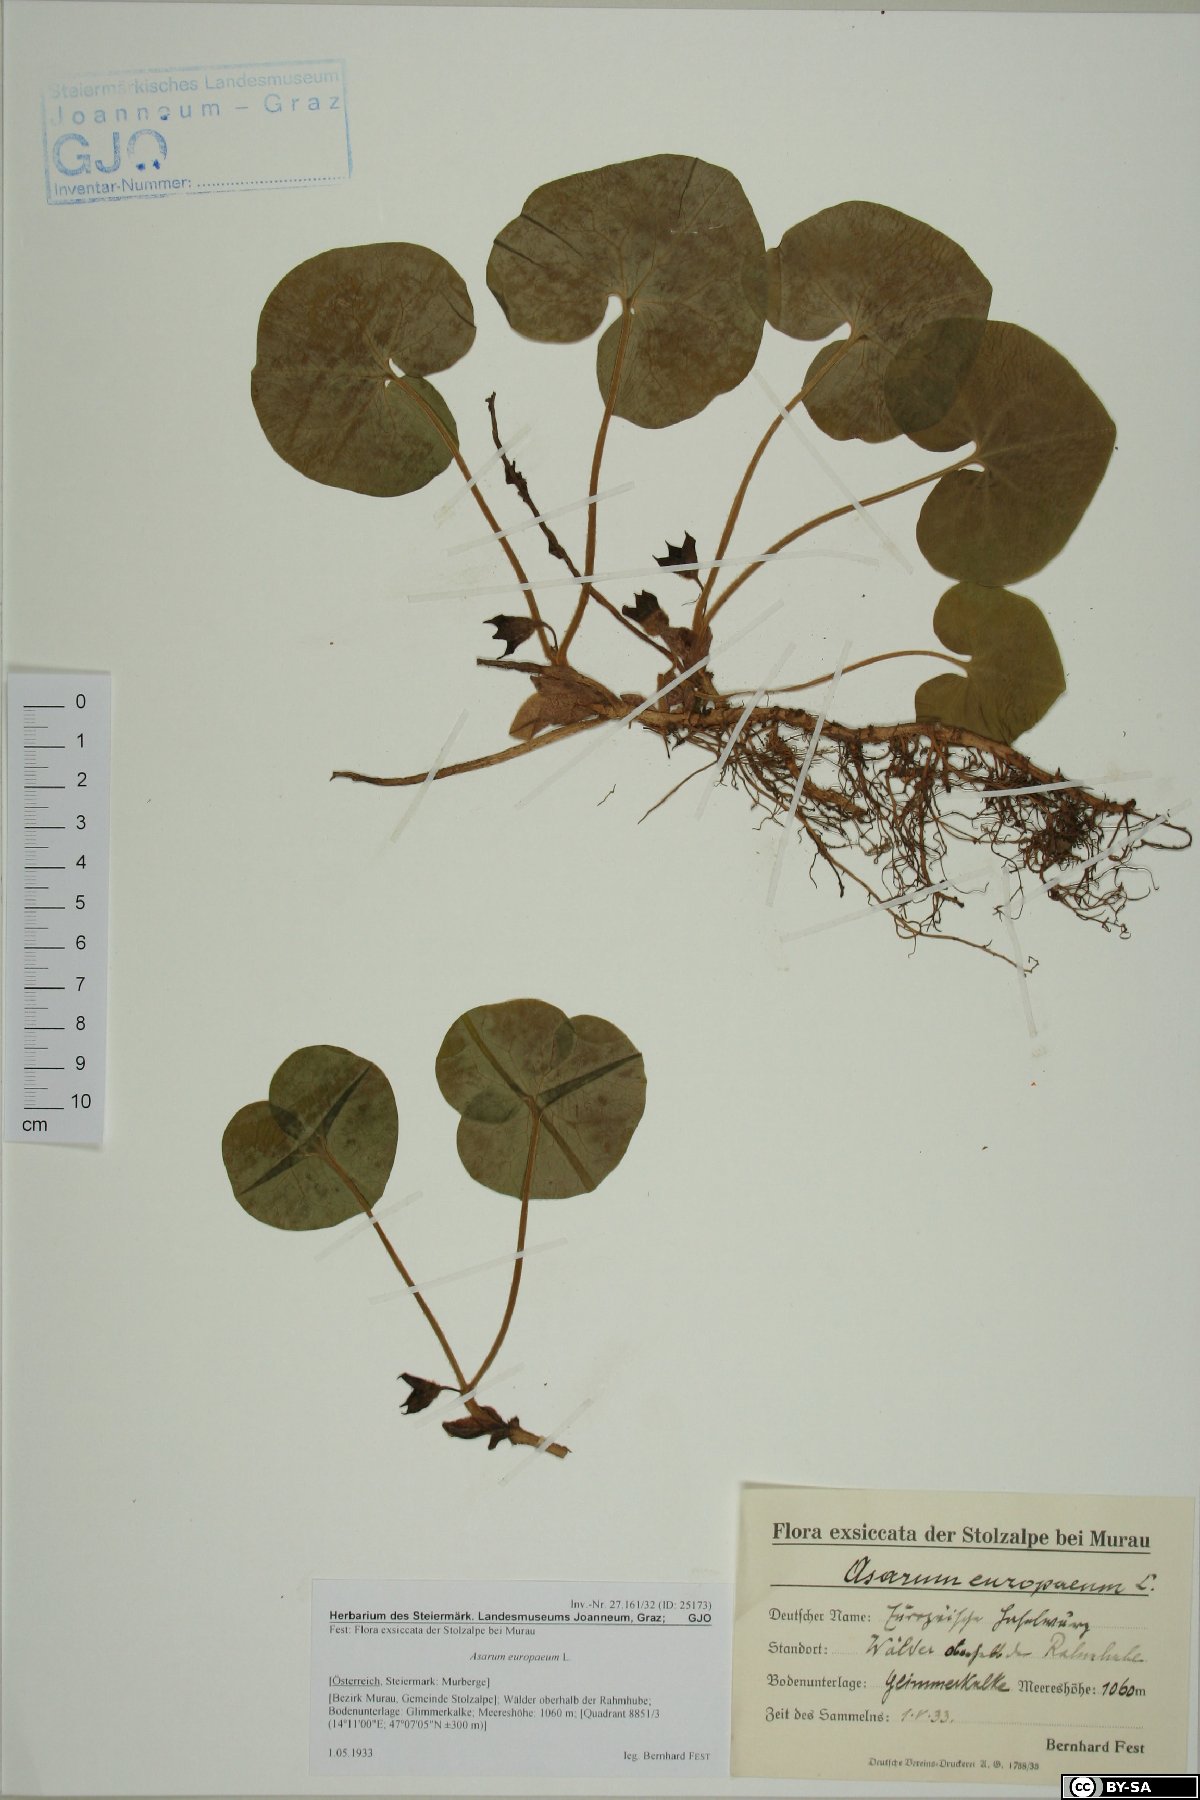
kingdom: Plantae
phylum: Tracheophyta
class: Magnoliopsida
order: Piperales
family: Aristolochiaceae
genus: Asarum
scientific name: Asarum europaeum
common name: Asarabacca
